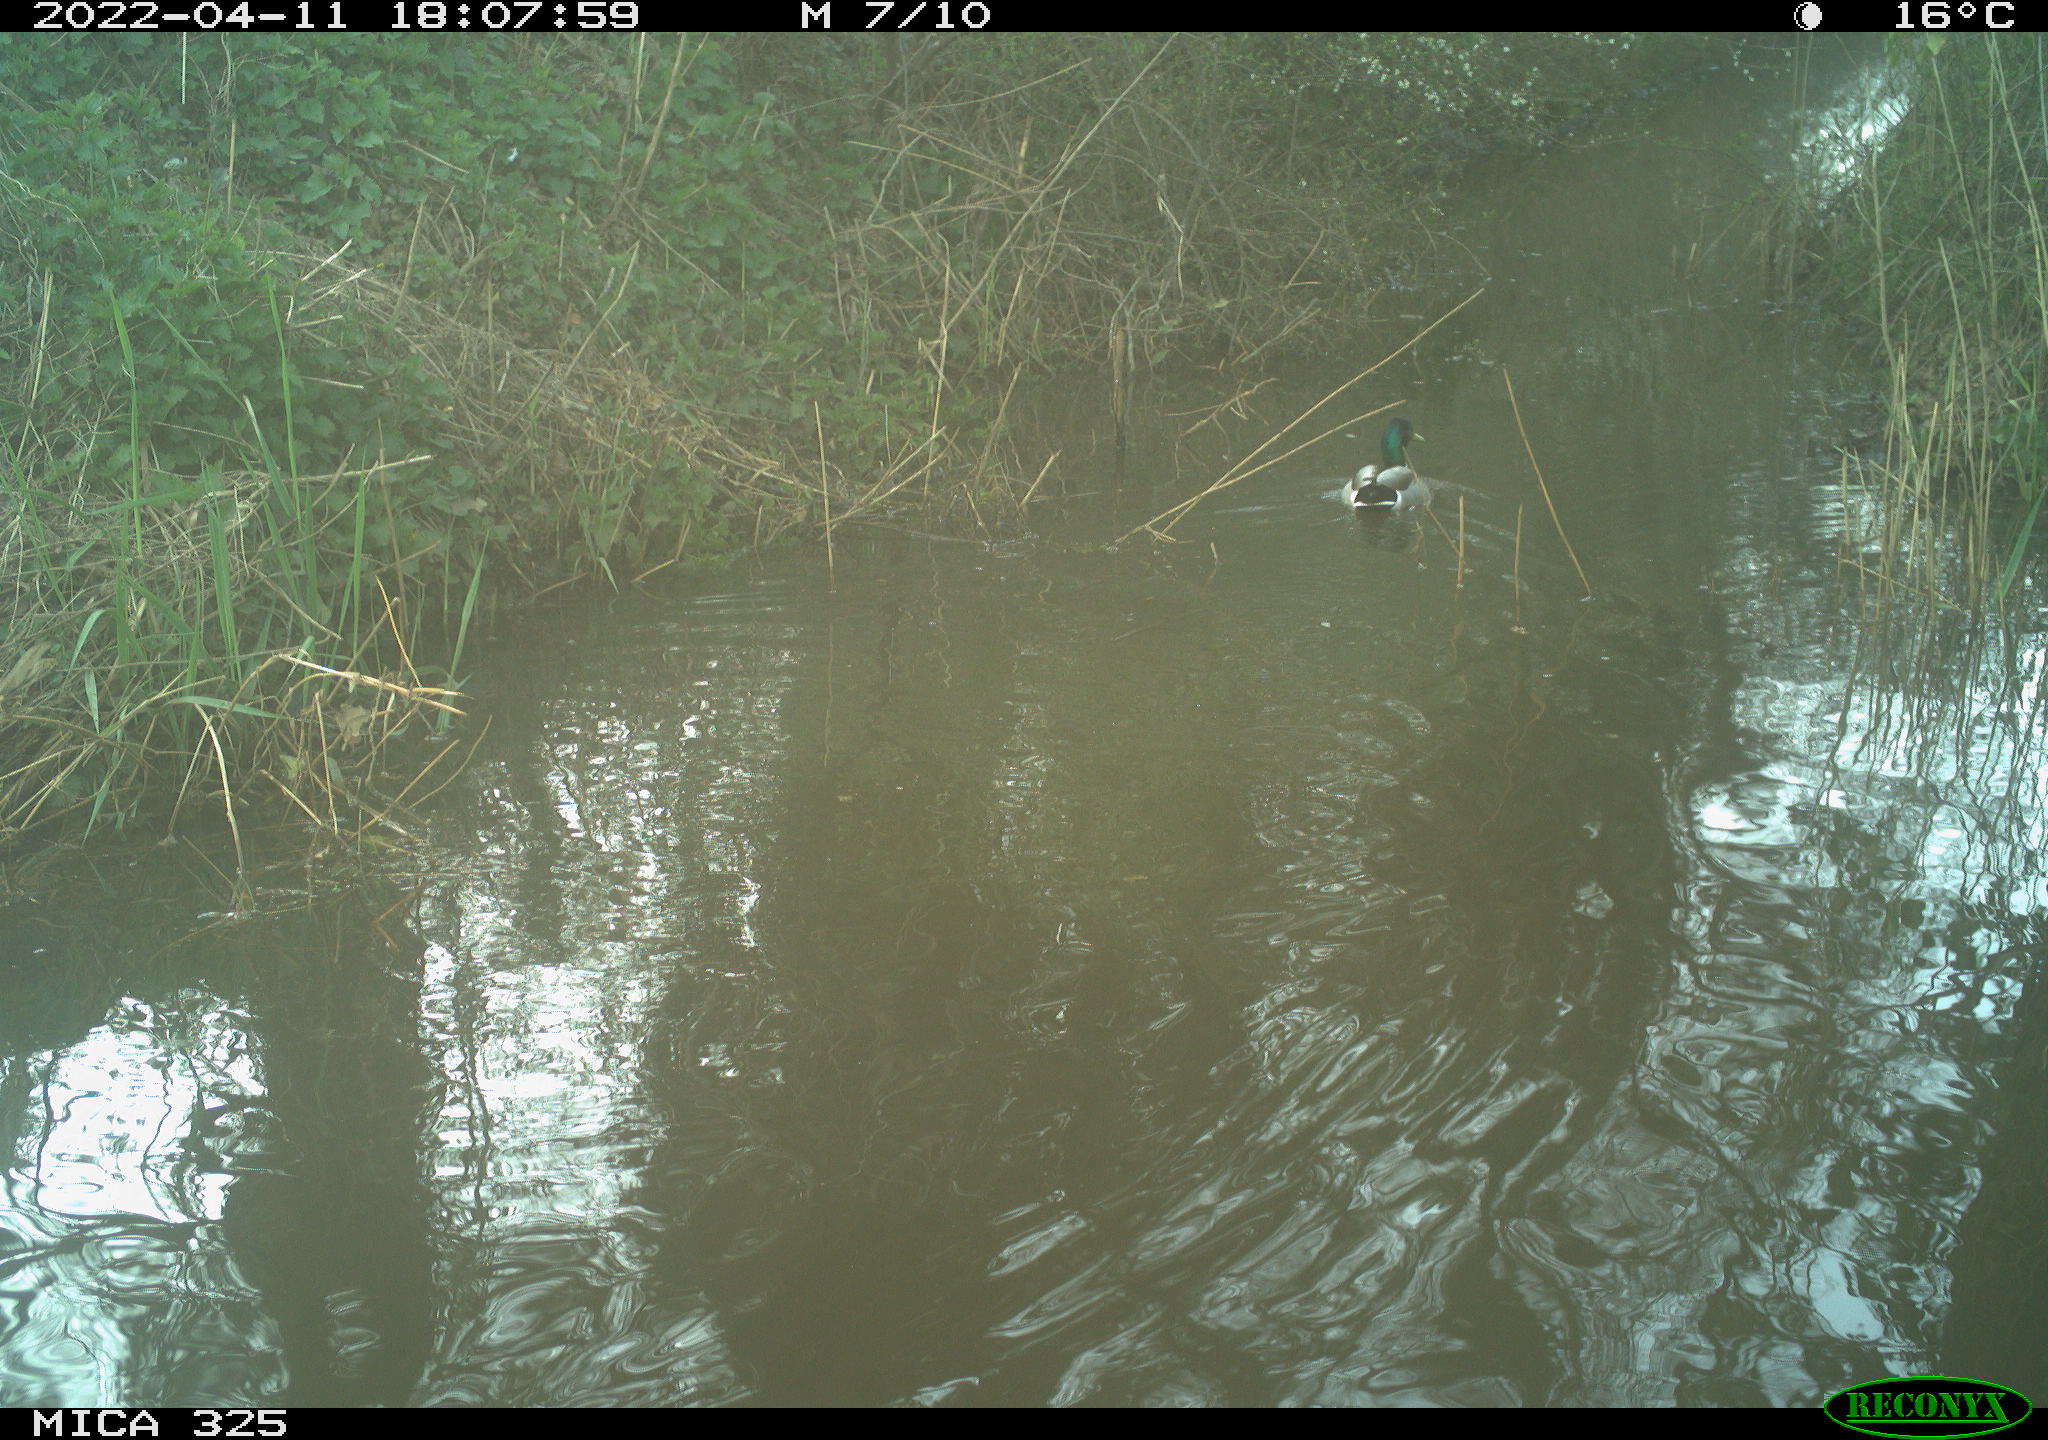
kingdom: Animalia
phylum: Chordata
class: Aves
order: Anseriformes
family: Anatidae
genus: Anas
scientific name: Anas platyrhynchos
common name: Mallard
